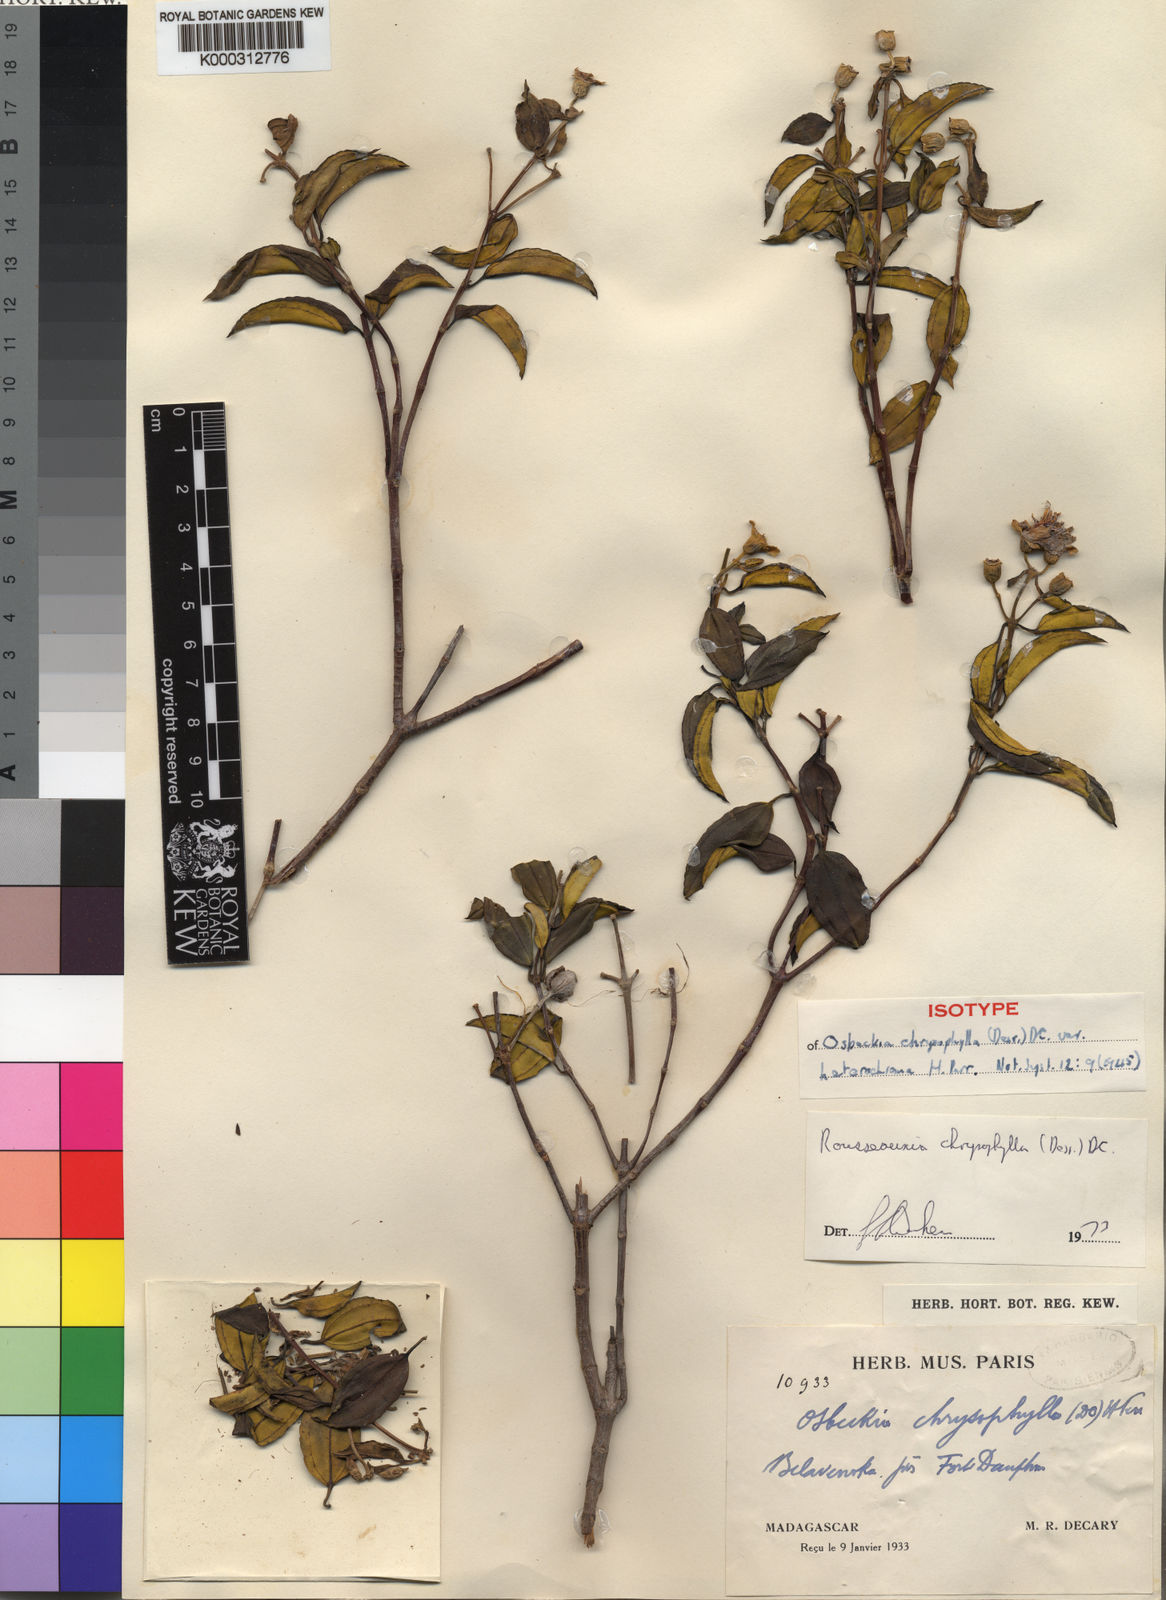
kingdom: Plantae
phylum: Tracheophyta
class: Magnoliopsida
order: Myrtales
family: Melastomataceae
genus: Rousseauxia
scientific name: Rousseauxia chrysophylla
